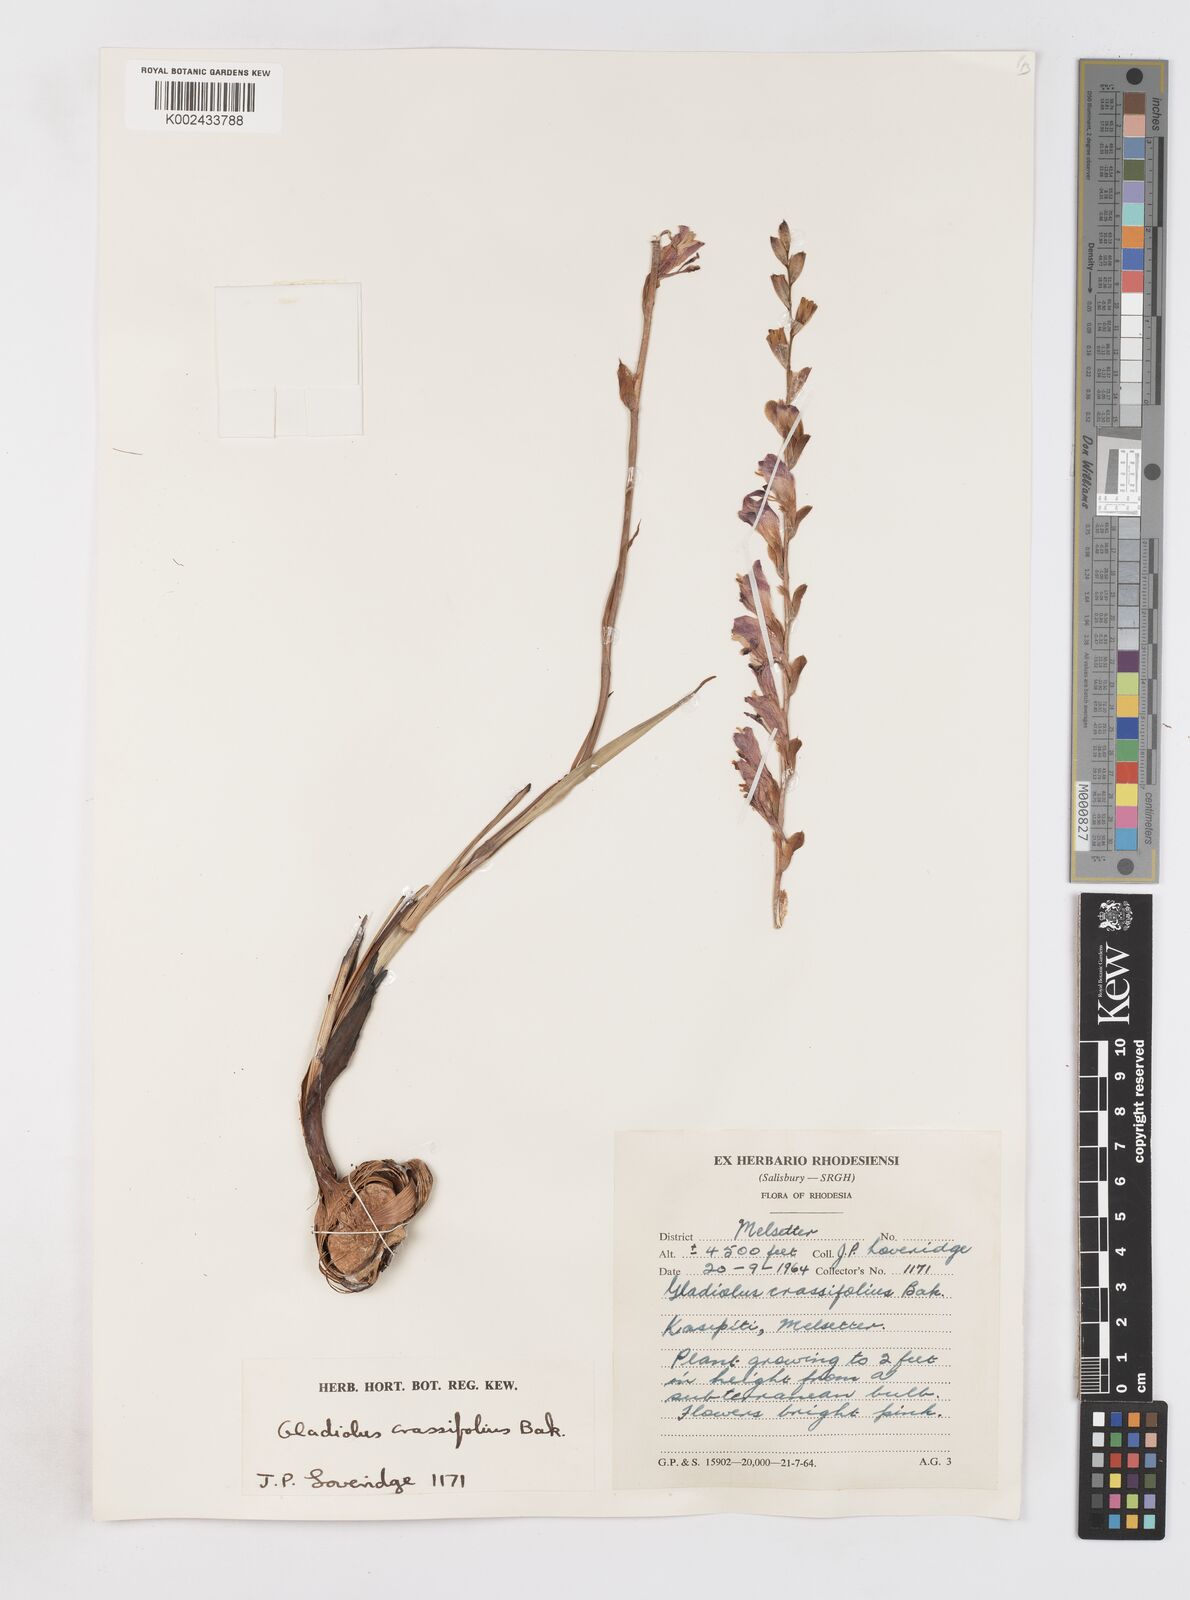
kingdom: Plantae
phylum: Tracheophyta
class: Liliopsida
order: Asparagales
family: Iridaceae
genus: Gladiolus
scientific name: Gladiolus crassifolius
